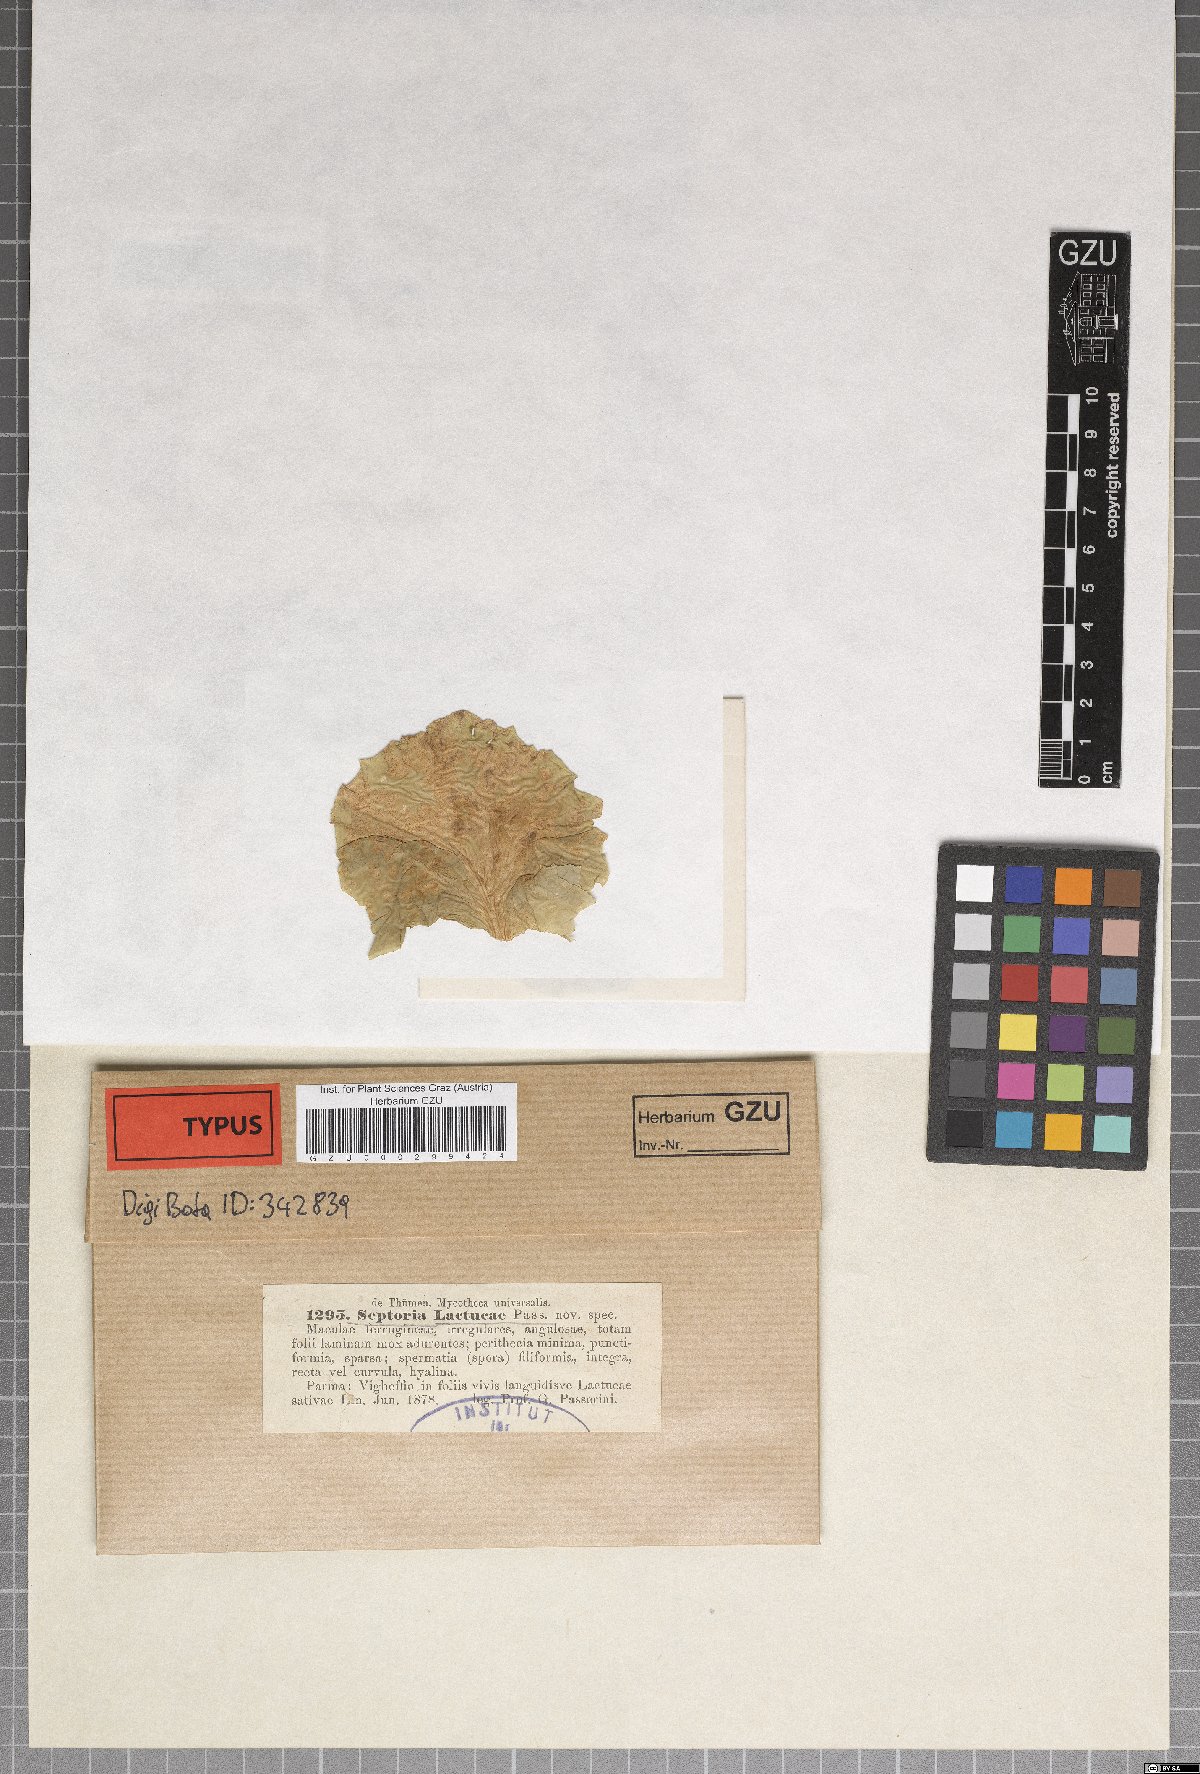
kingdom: Fungi
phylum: Ascomycota
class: Dothideomycetes
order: Mycosphaerellales
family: Mycosphaerellaceae
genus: Septoria
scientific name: Septoria lactucae
